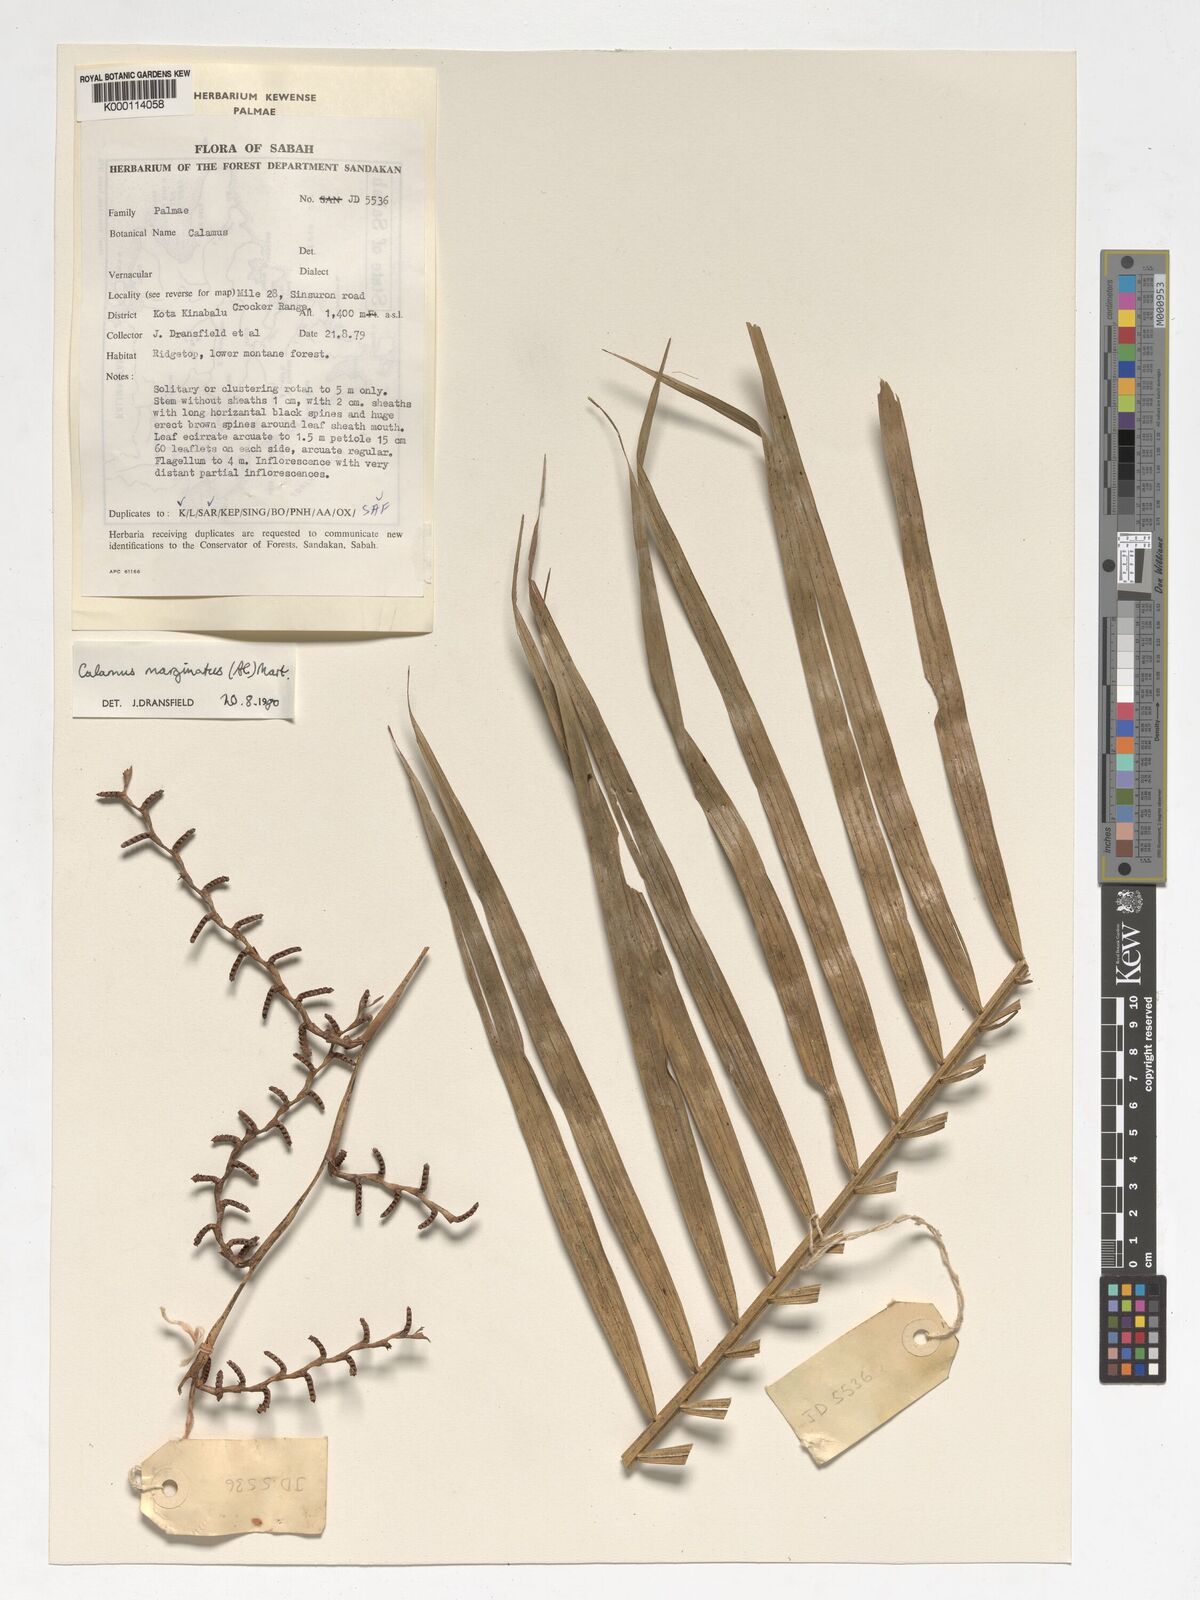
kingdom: Plantae
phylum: Tracheophyta
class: Liliopsida
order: Arecales
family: Arecaceae
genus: Calamus
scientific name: Calamus
